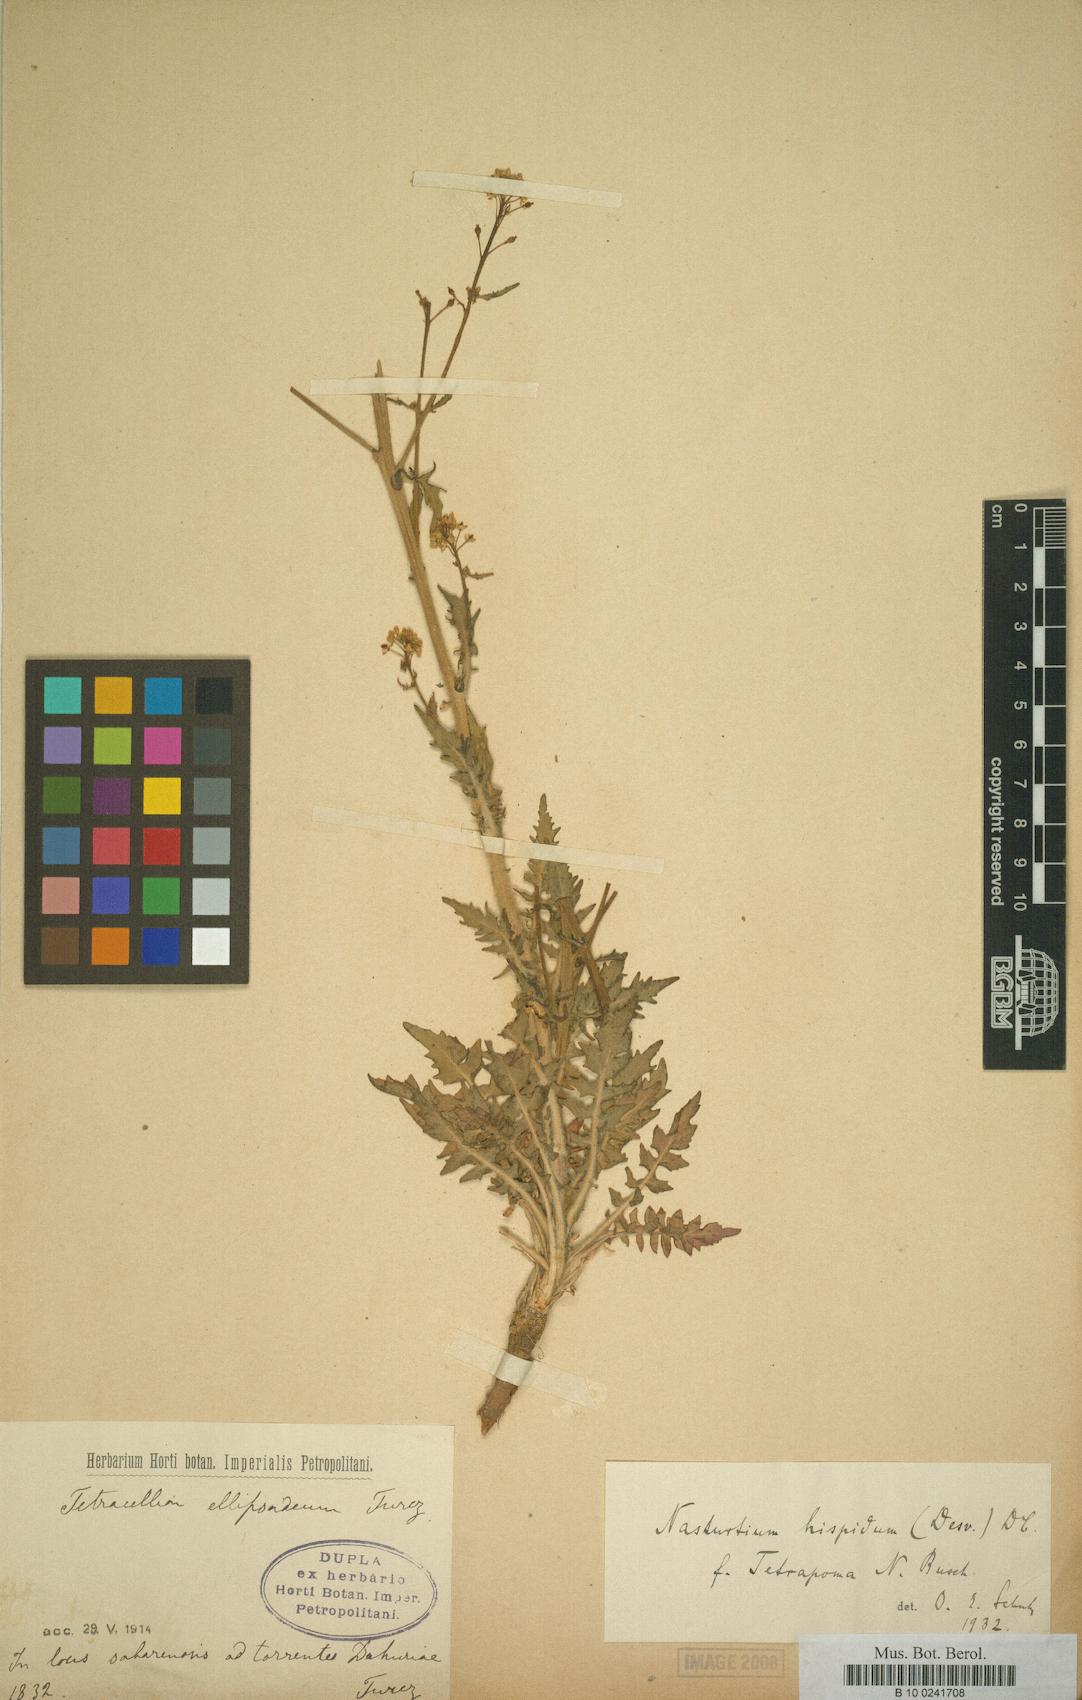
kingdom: Plantae
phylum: Tracheophyta
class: Magnoliopsida
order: Brassicales
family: Brassicaceae
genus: Rorippa
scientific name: Rorippa barbareifolia
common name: Hoary yellowcress
